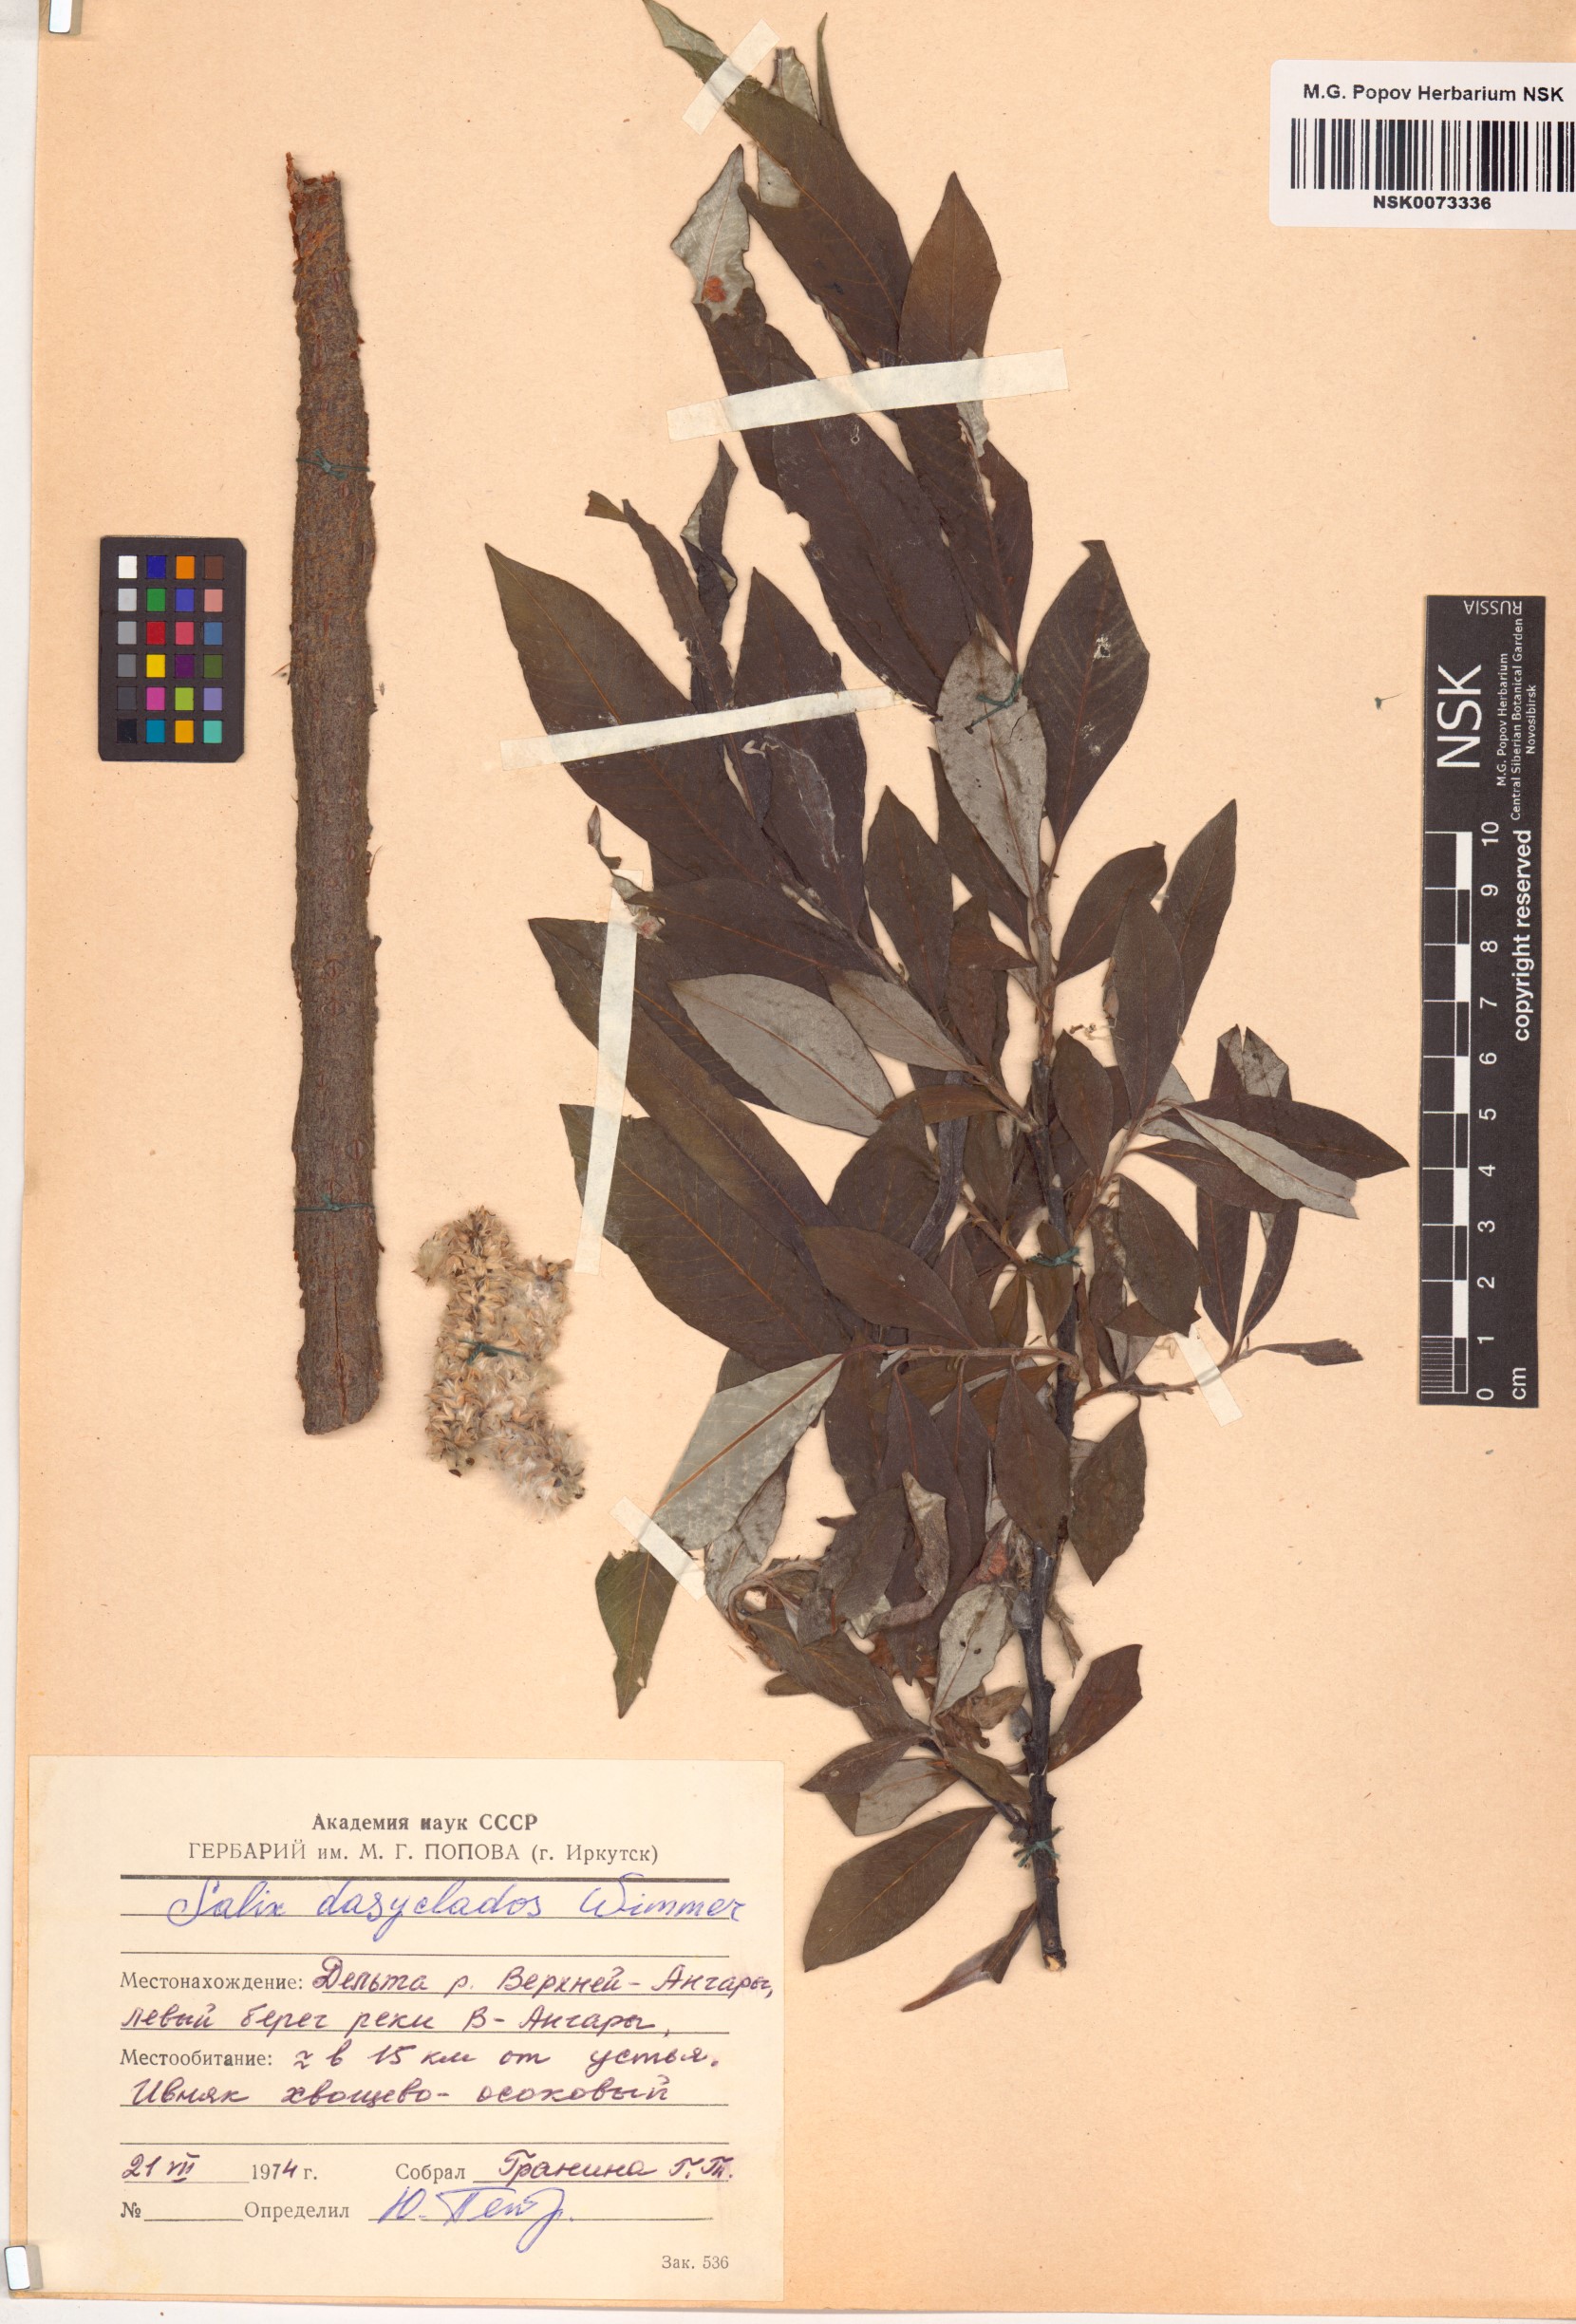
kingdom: Plantae
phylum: Tracheophyta
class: Magnoliopsida
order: Malpighiales
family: Salicaceae
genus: Salix
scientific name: Salix gmelinii
